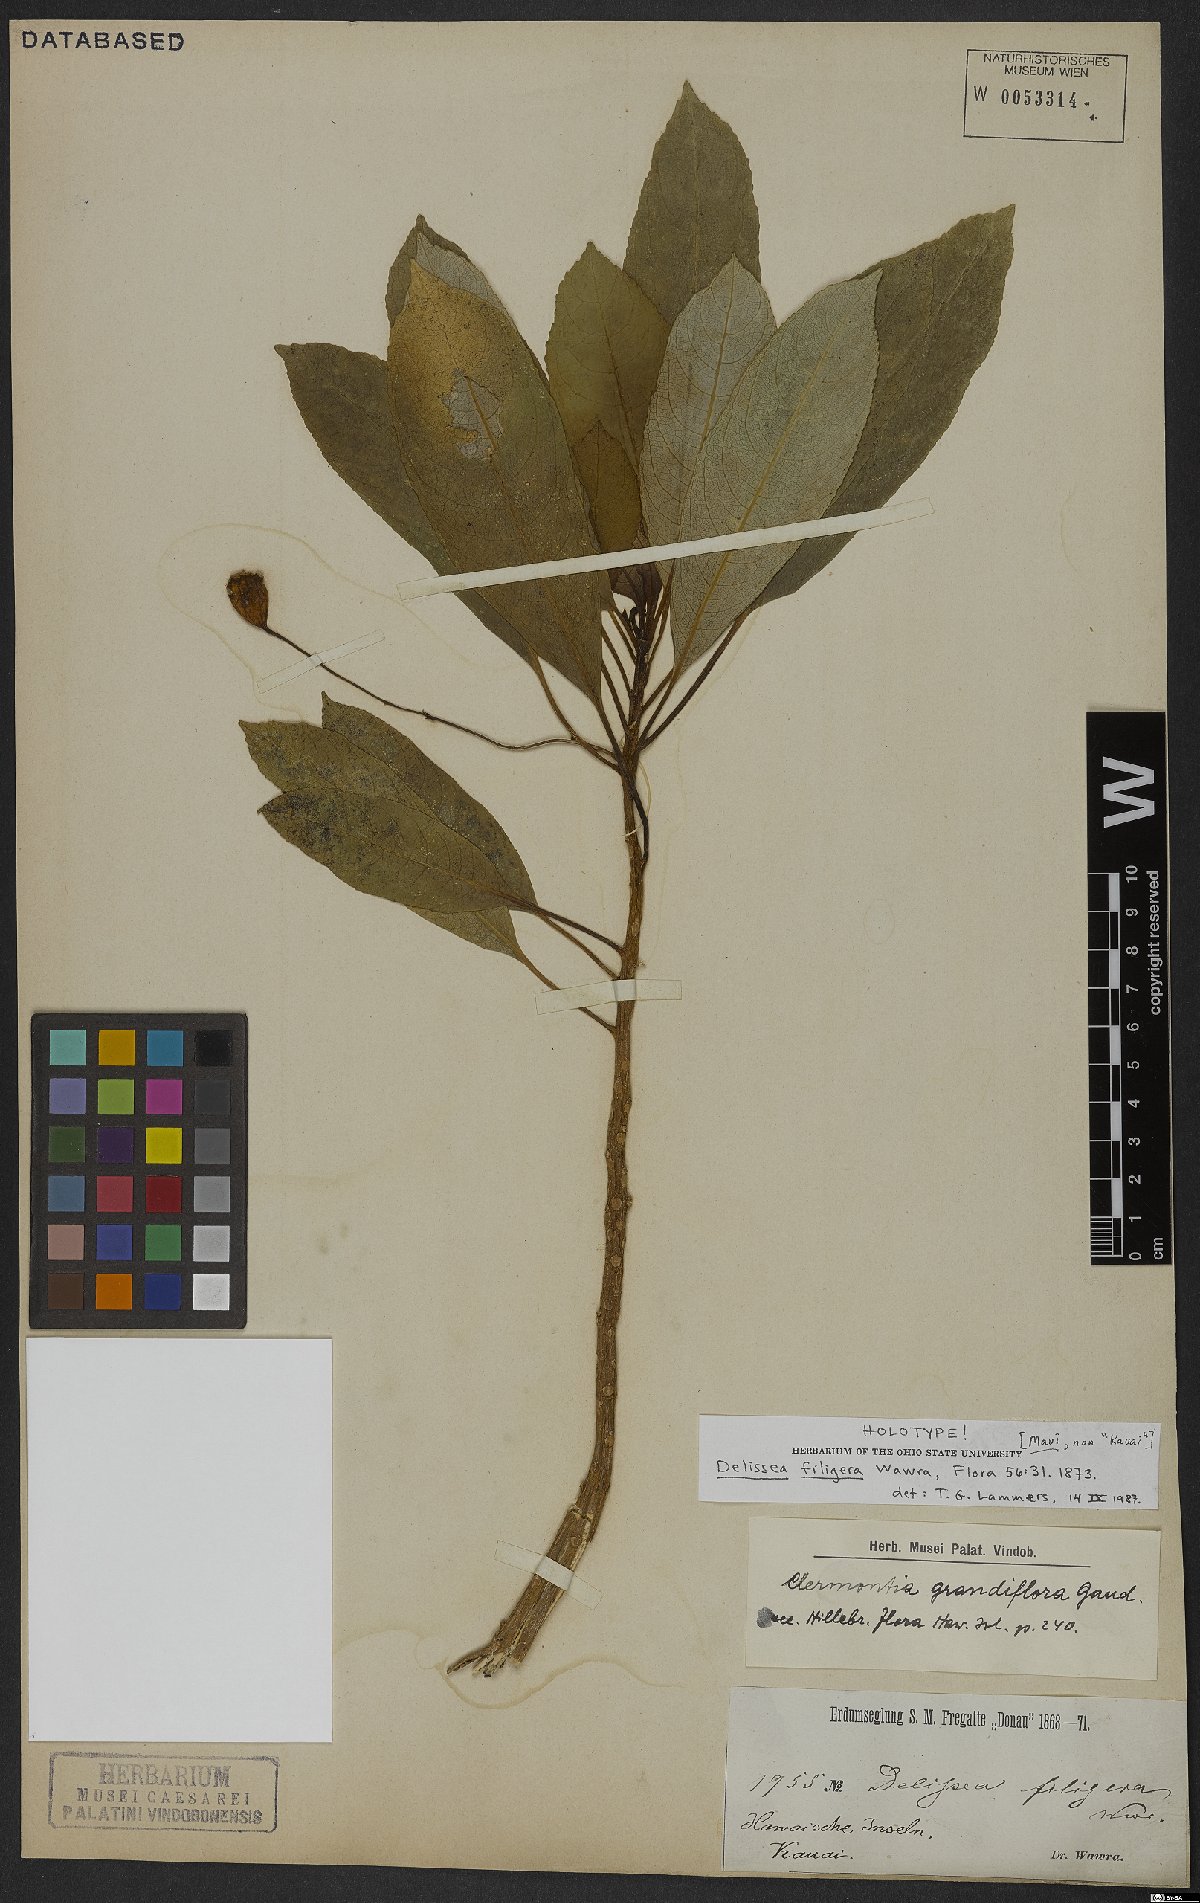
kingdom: Plantae
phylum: Tracheophyta
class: Magnoliopsida
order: Asterales
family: Campanulaceae
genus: Clermontia
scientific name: Clermontia grandiflora
